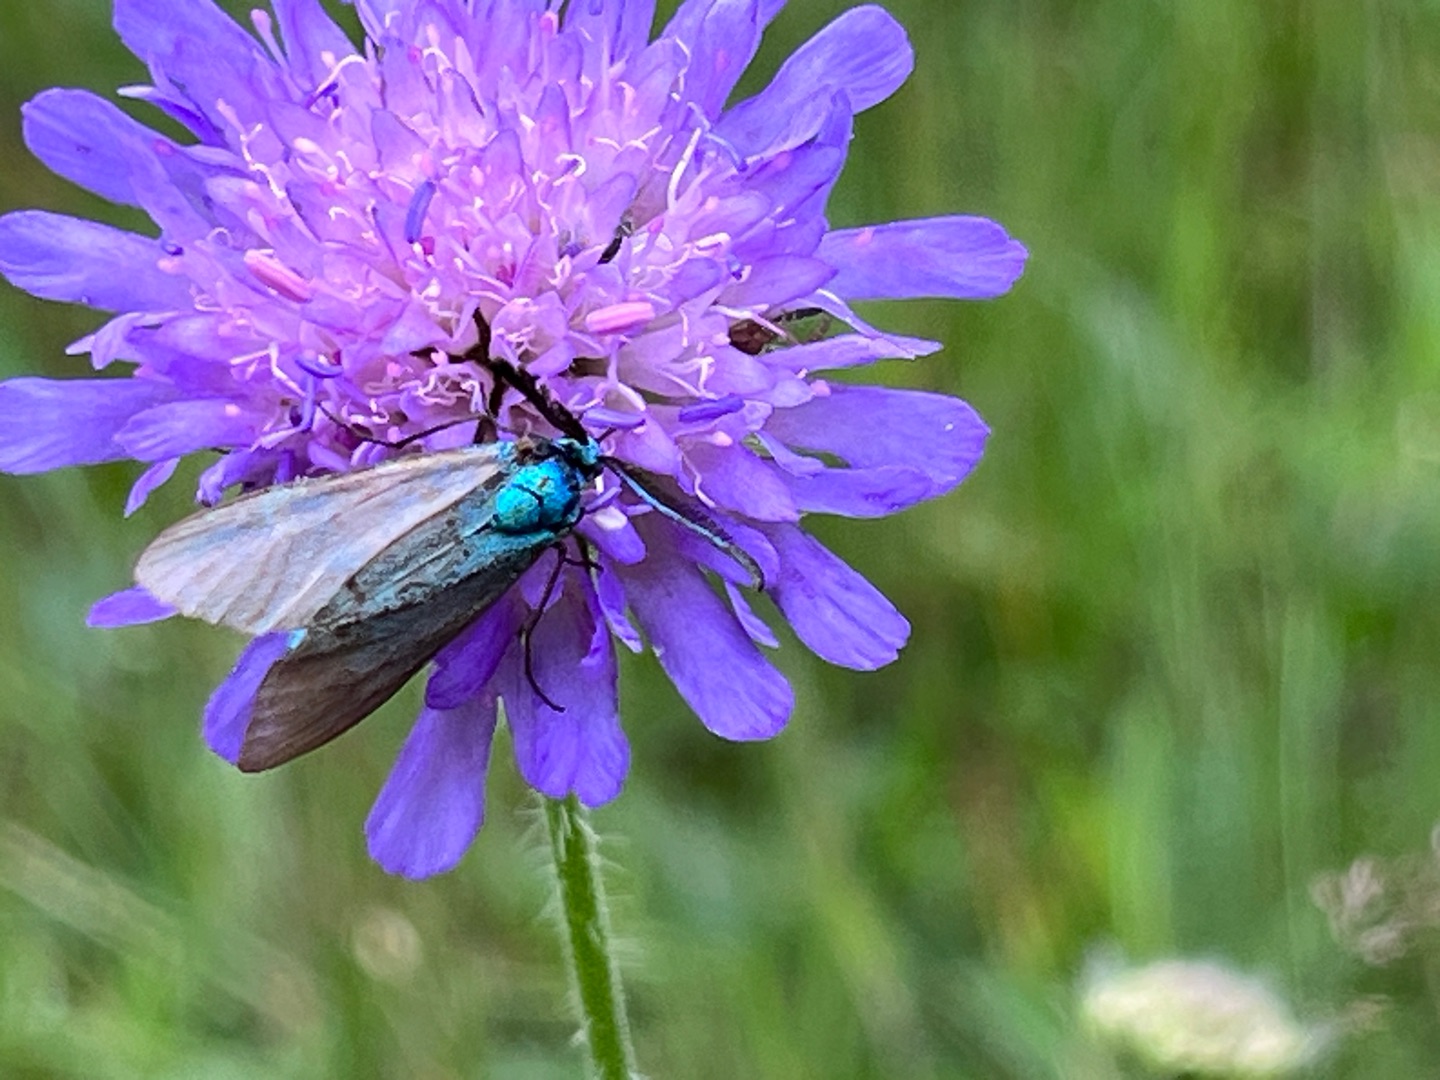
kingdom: Animalia
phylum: Arthropoda
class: Insecta
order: Lepidoptera
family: Zygaenidae
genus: Adscita
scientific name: Adscita statices
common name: Metalvinge
